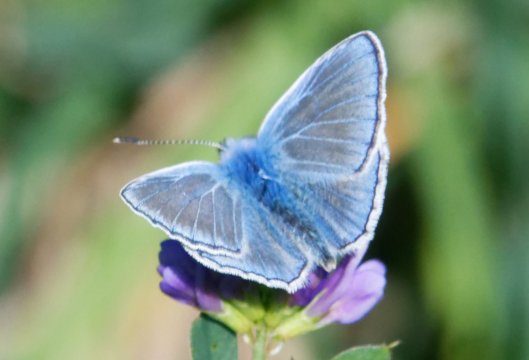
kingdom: Animalia
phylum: Arthropoda
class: Insecta
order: Lepidoptera
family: Lycaenidae
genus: Polyommatus
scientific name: Polyommatus icarus
